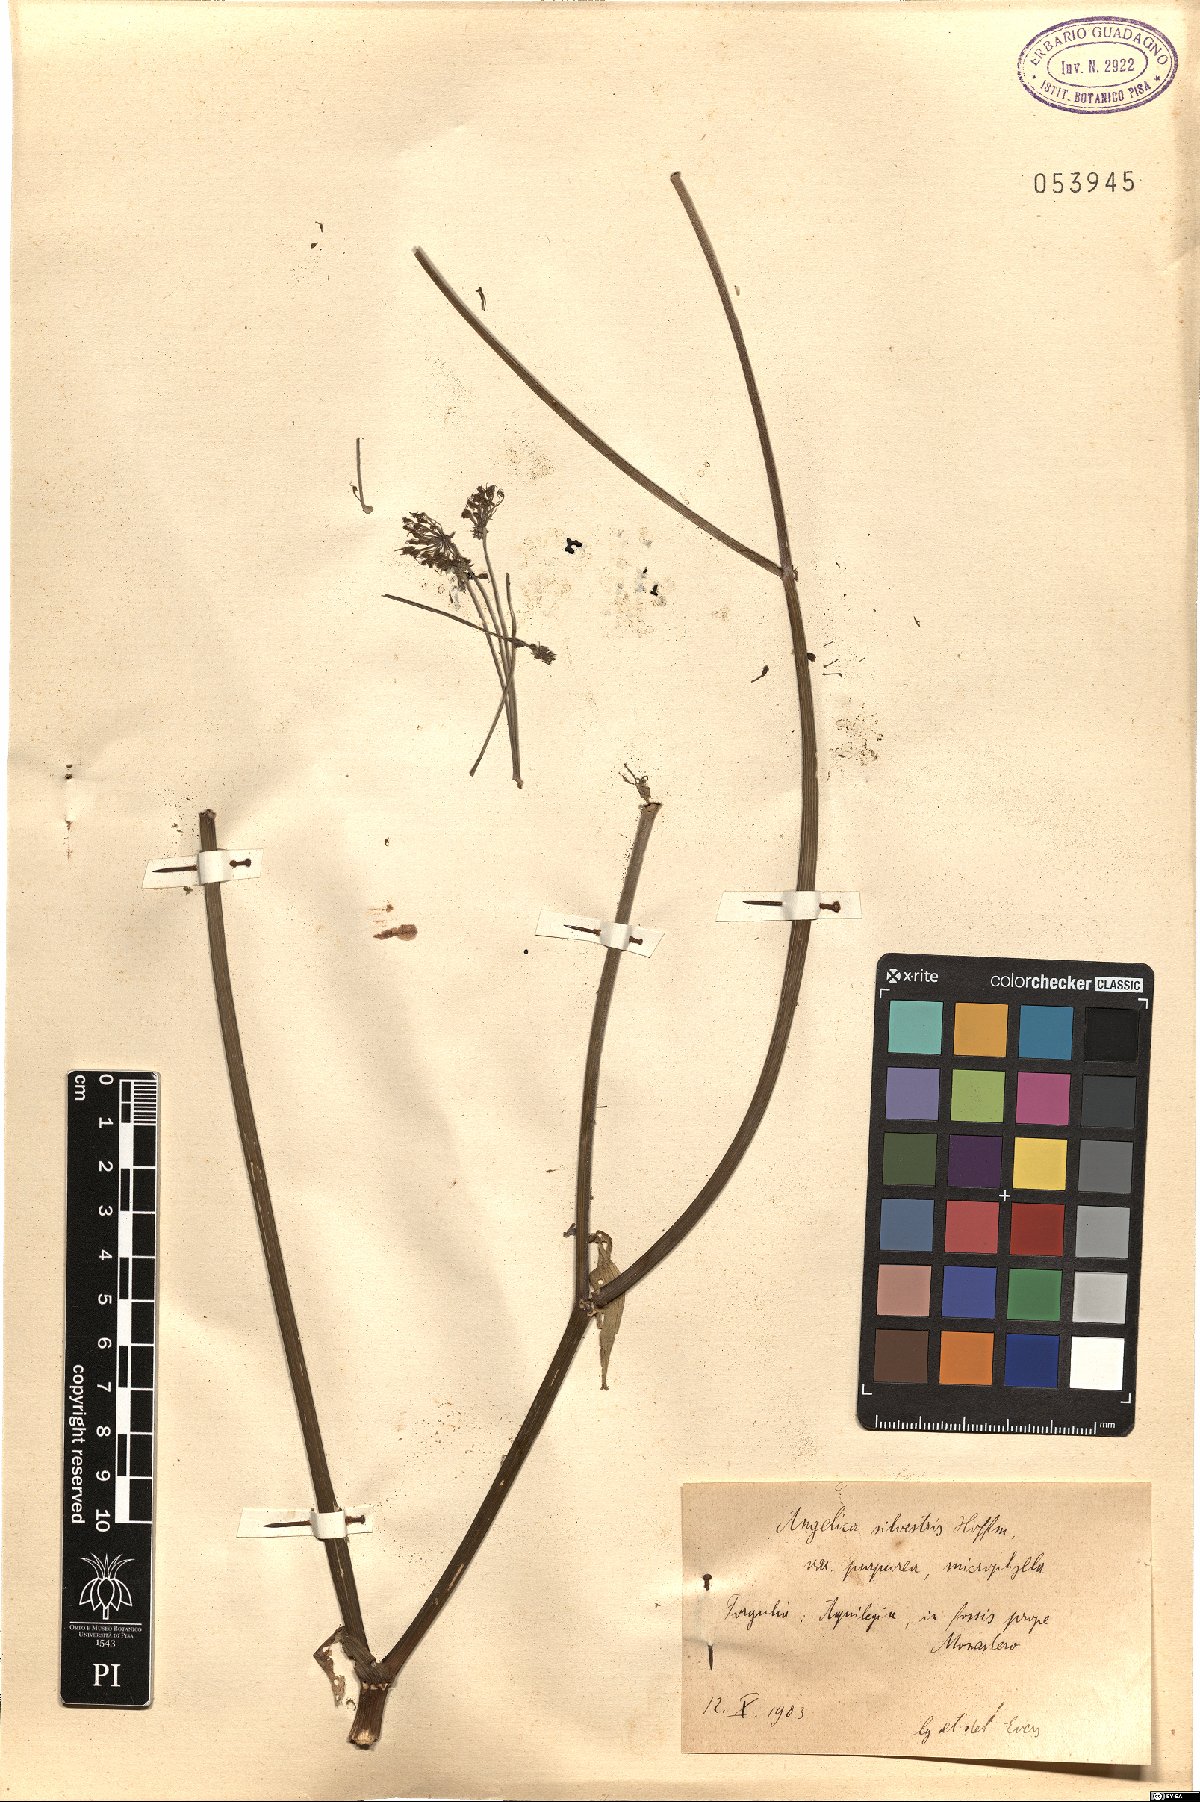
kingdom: Plantae
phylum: Tracheophyta
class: Magnoliopsida
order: Apiales
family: Apiaceae
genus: Angelica
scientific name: Angelica sylvestris
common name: Wild angelica
